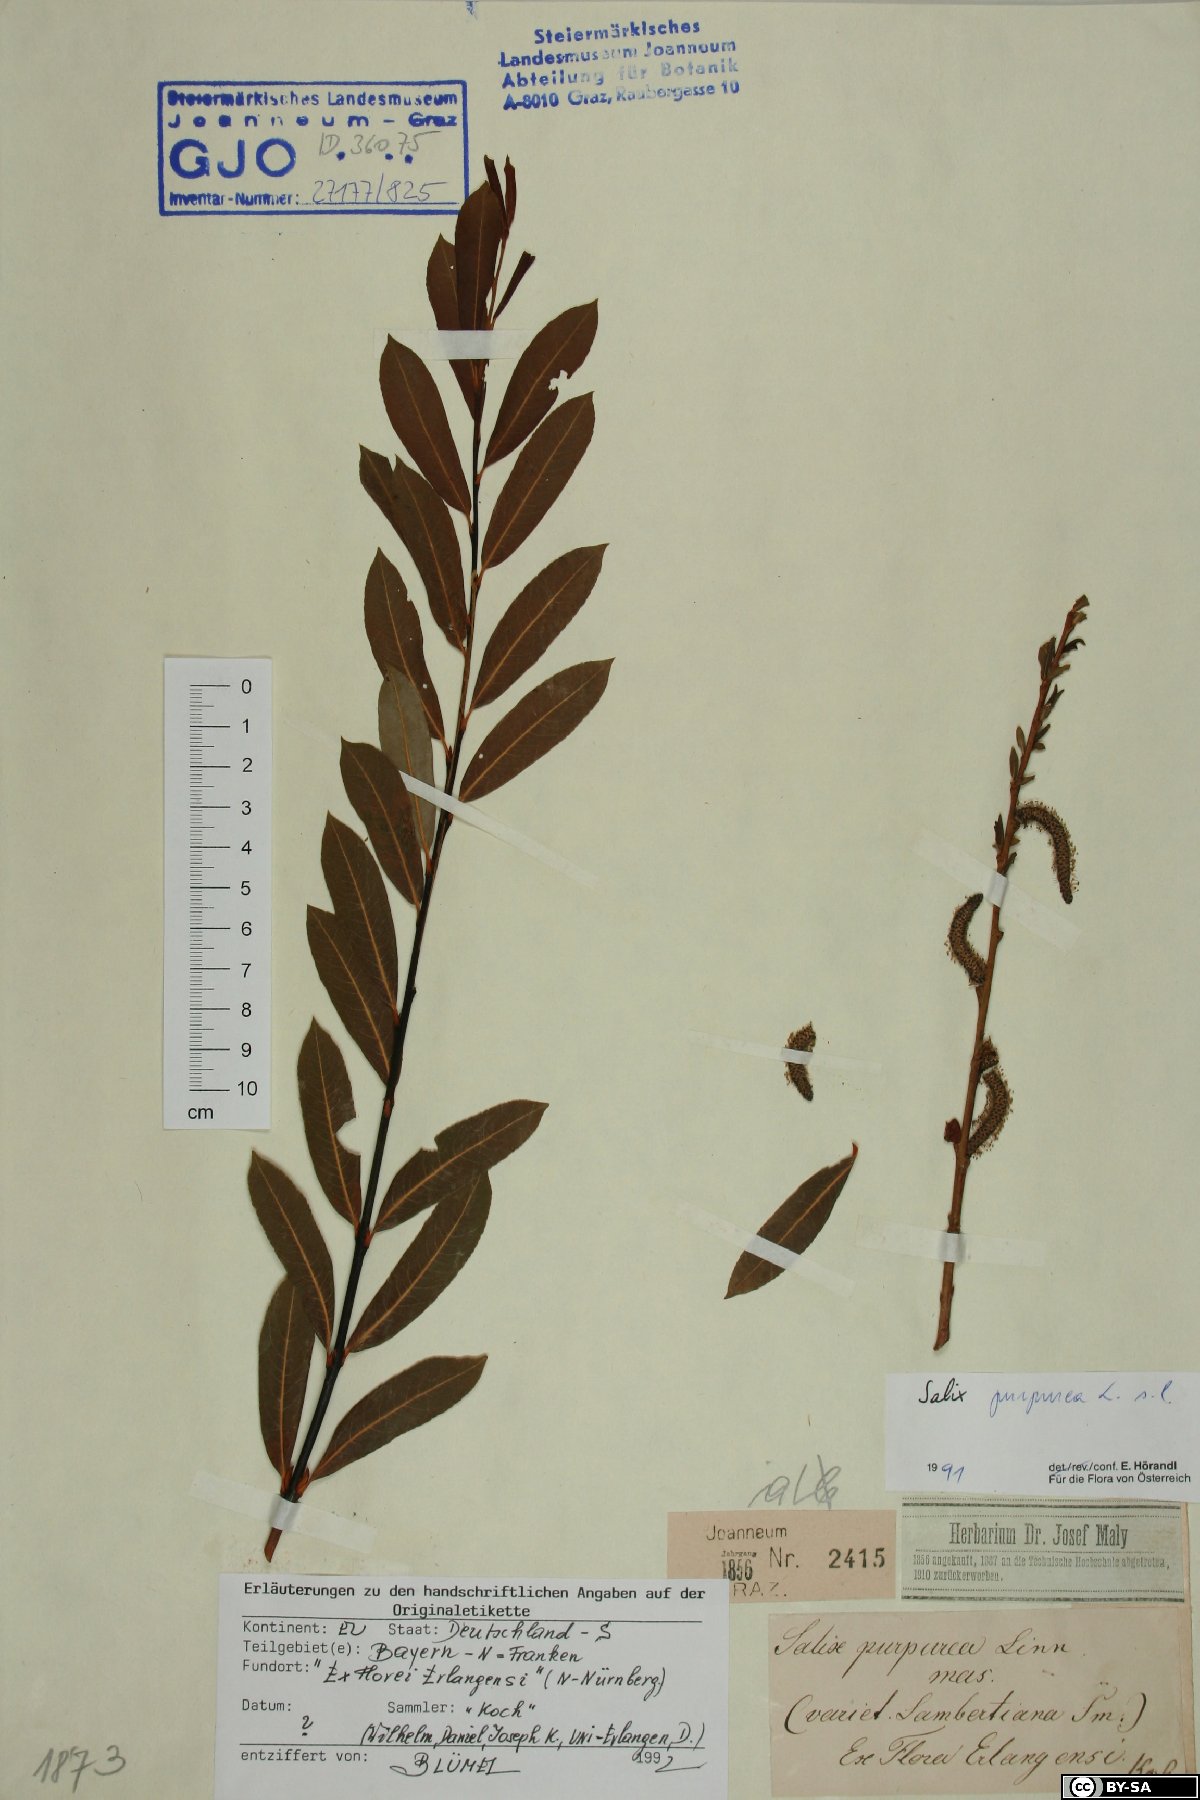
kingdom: Plantae
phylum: Tracheophyta
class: Magnoliopsida
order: Malpighiales
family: Salicaceae
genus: Salix
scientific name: Salix purpurea
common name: Purple willow
